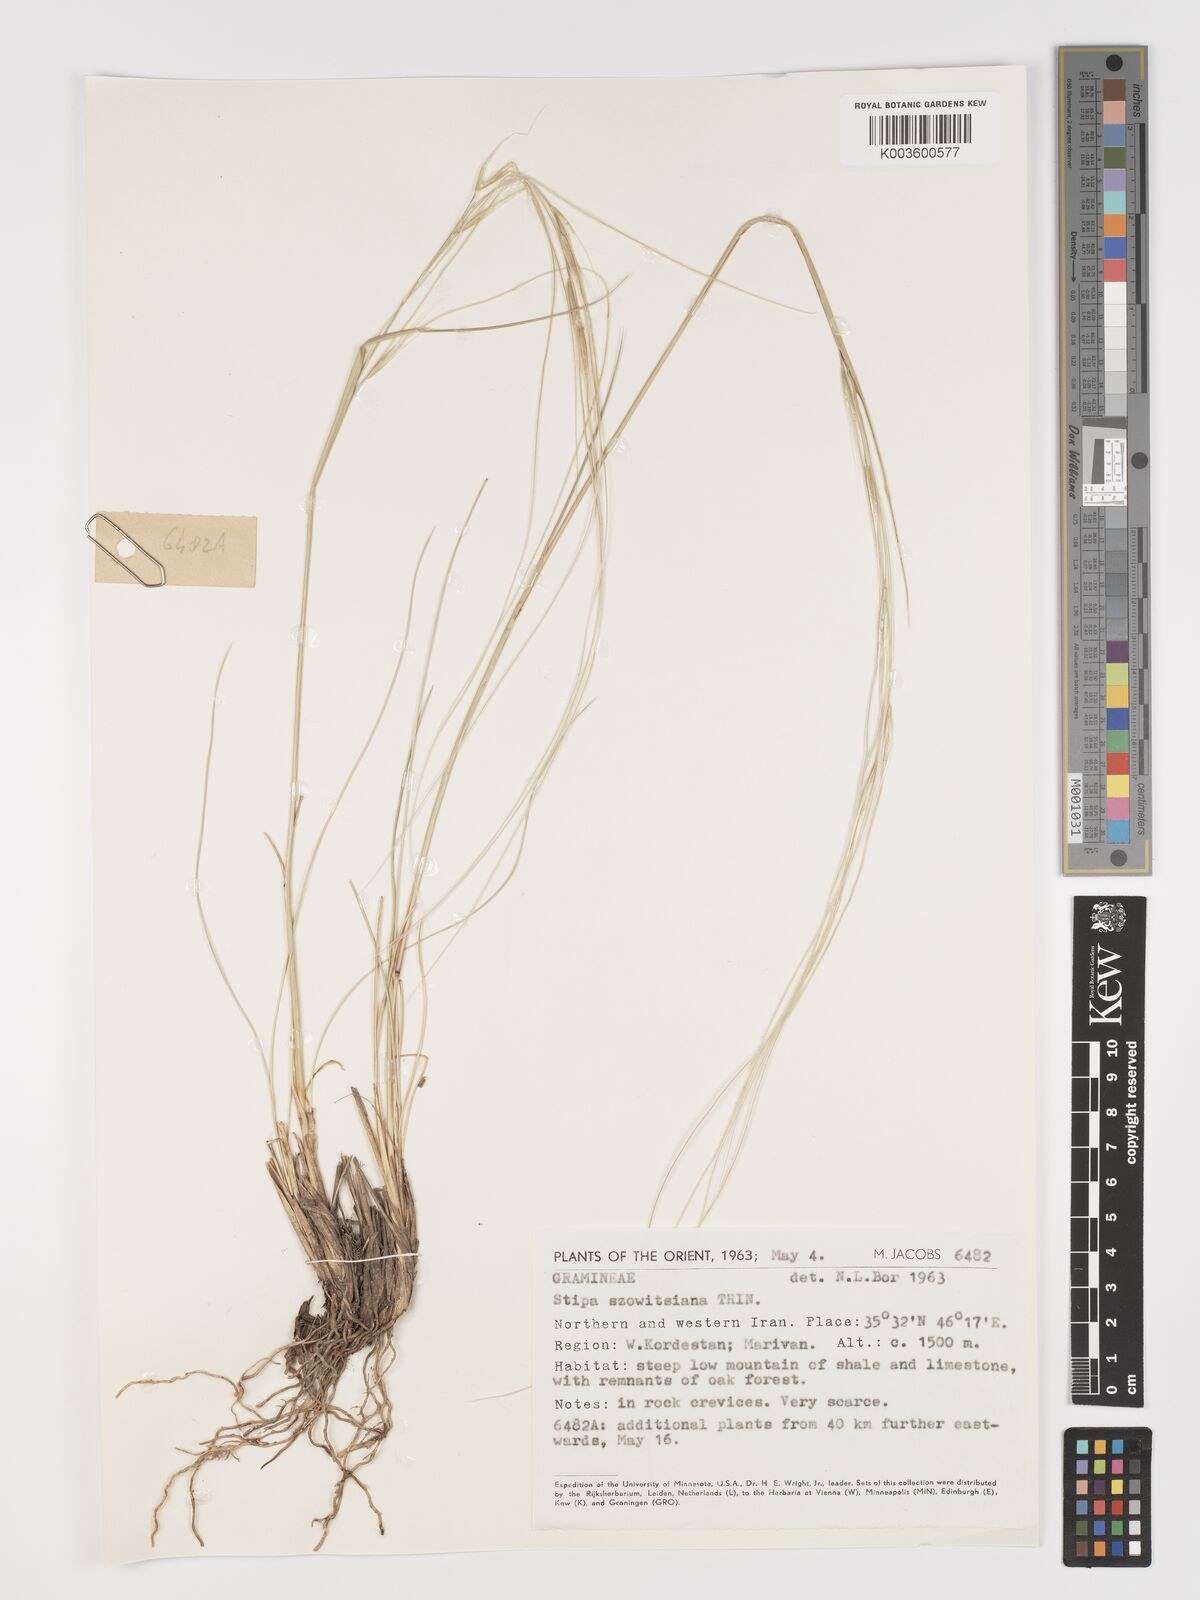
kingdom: Plantae
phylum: Tracheophyta
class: Liliopsida
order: Poales
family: Poaceae
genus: Stipa
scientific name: Stipa barbata
